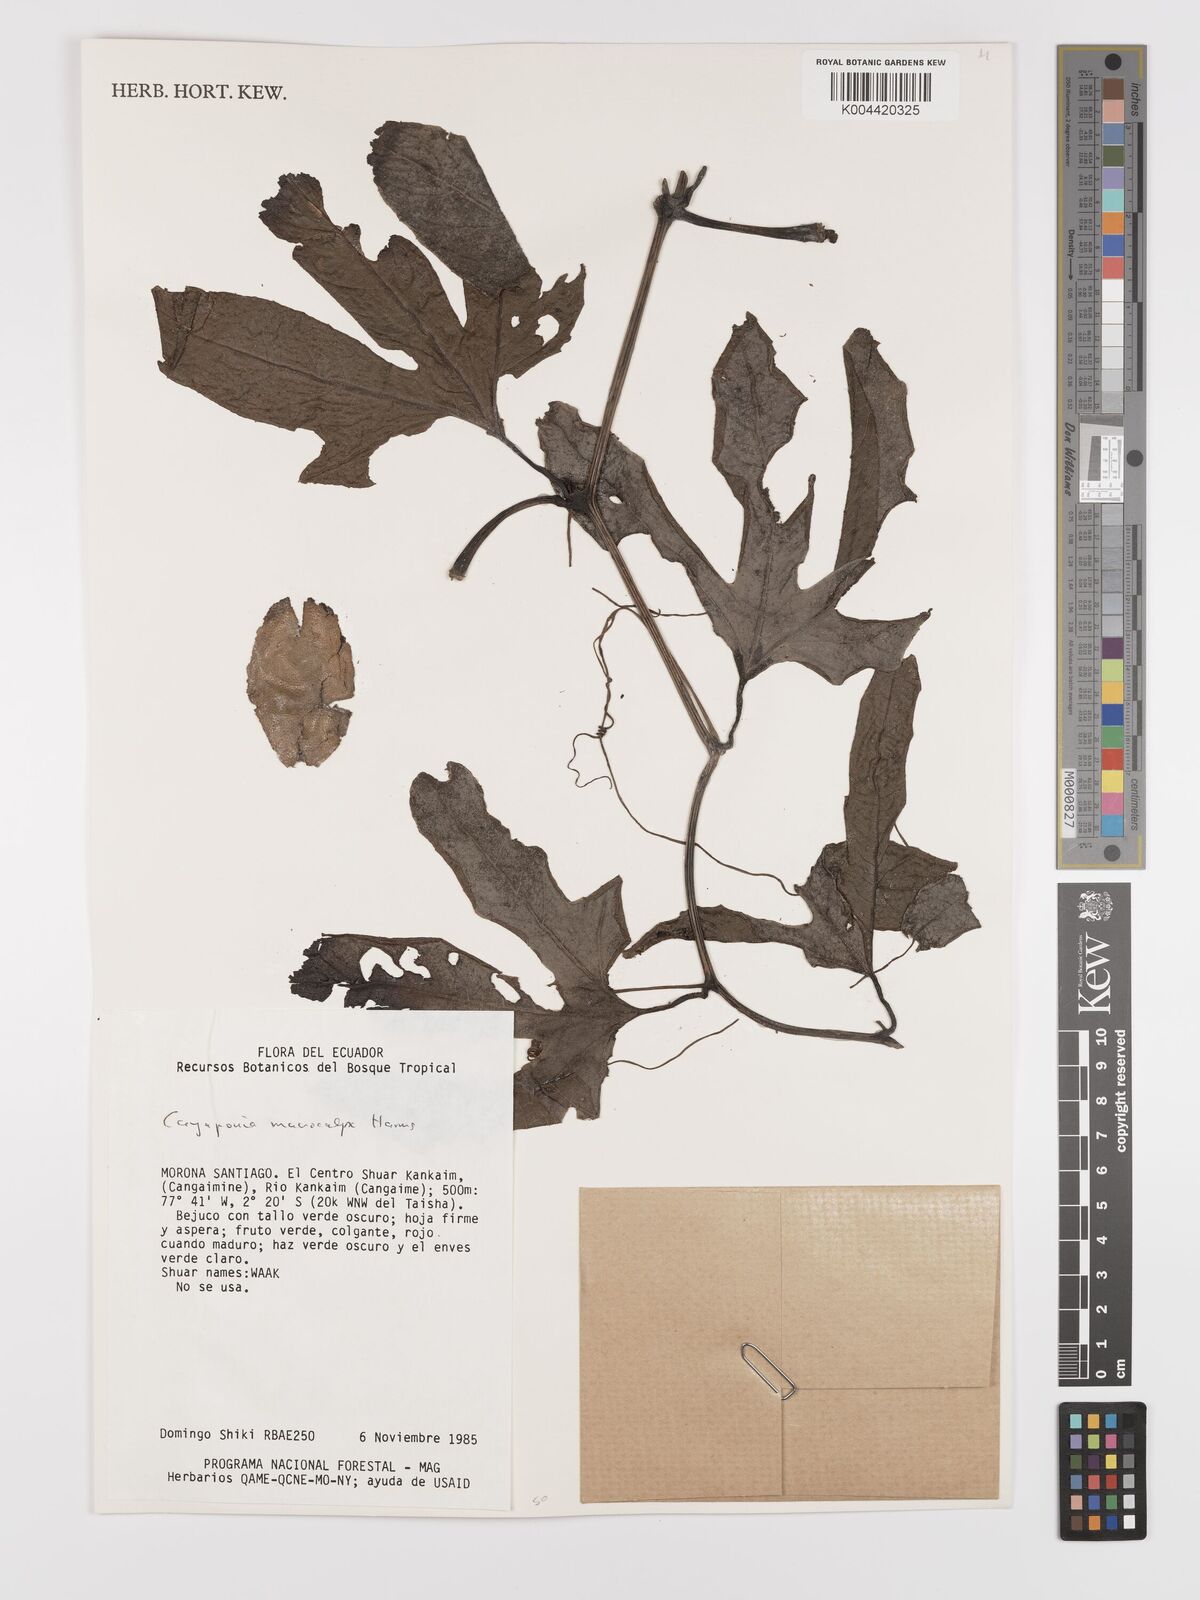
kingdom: Plantae
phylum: Tracheophyta
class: Magnoliopsida
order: Cucurbitales
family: Cucurbitaceae
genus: Cayaponia
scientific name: Cayaponia macrocalyx
